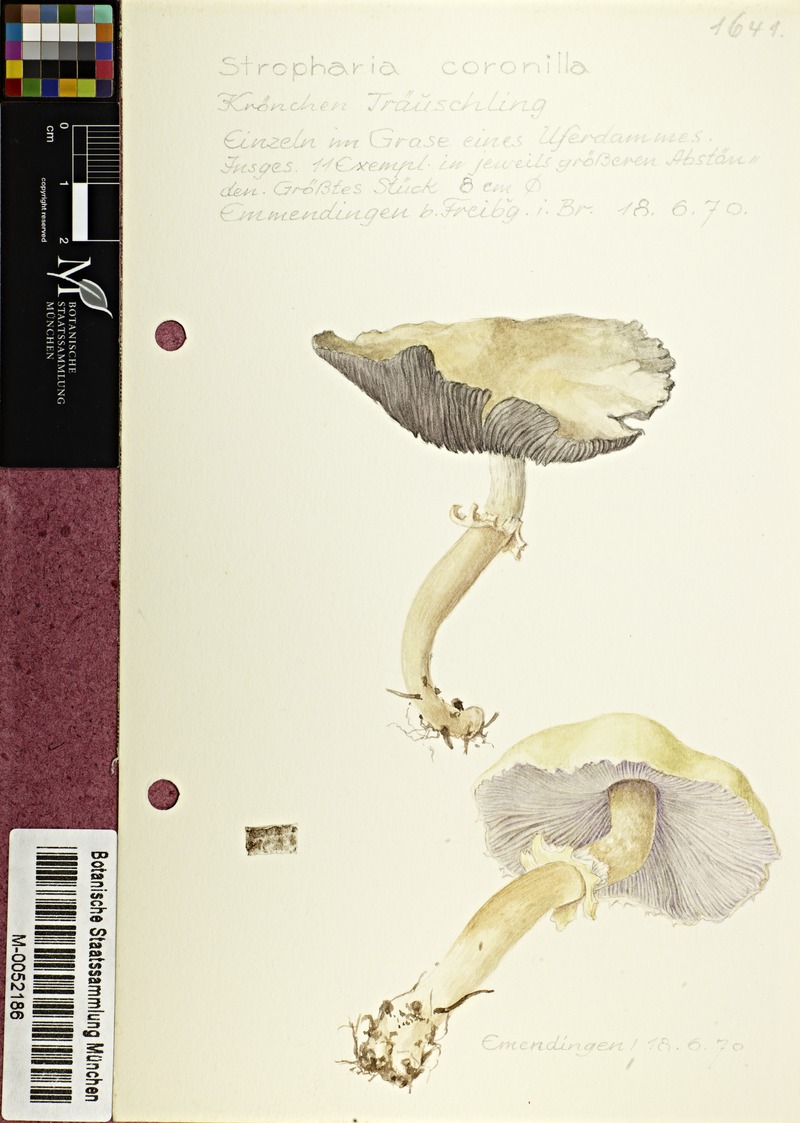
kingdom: Fungi
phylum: Basidiomycota
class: Agaricomycetes
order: Agaricales
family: Hymenogastraceae
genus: Psilocybe
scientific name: Psilocybe coronilla
